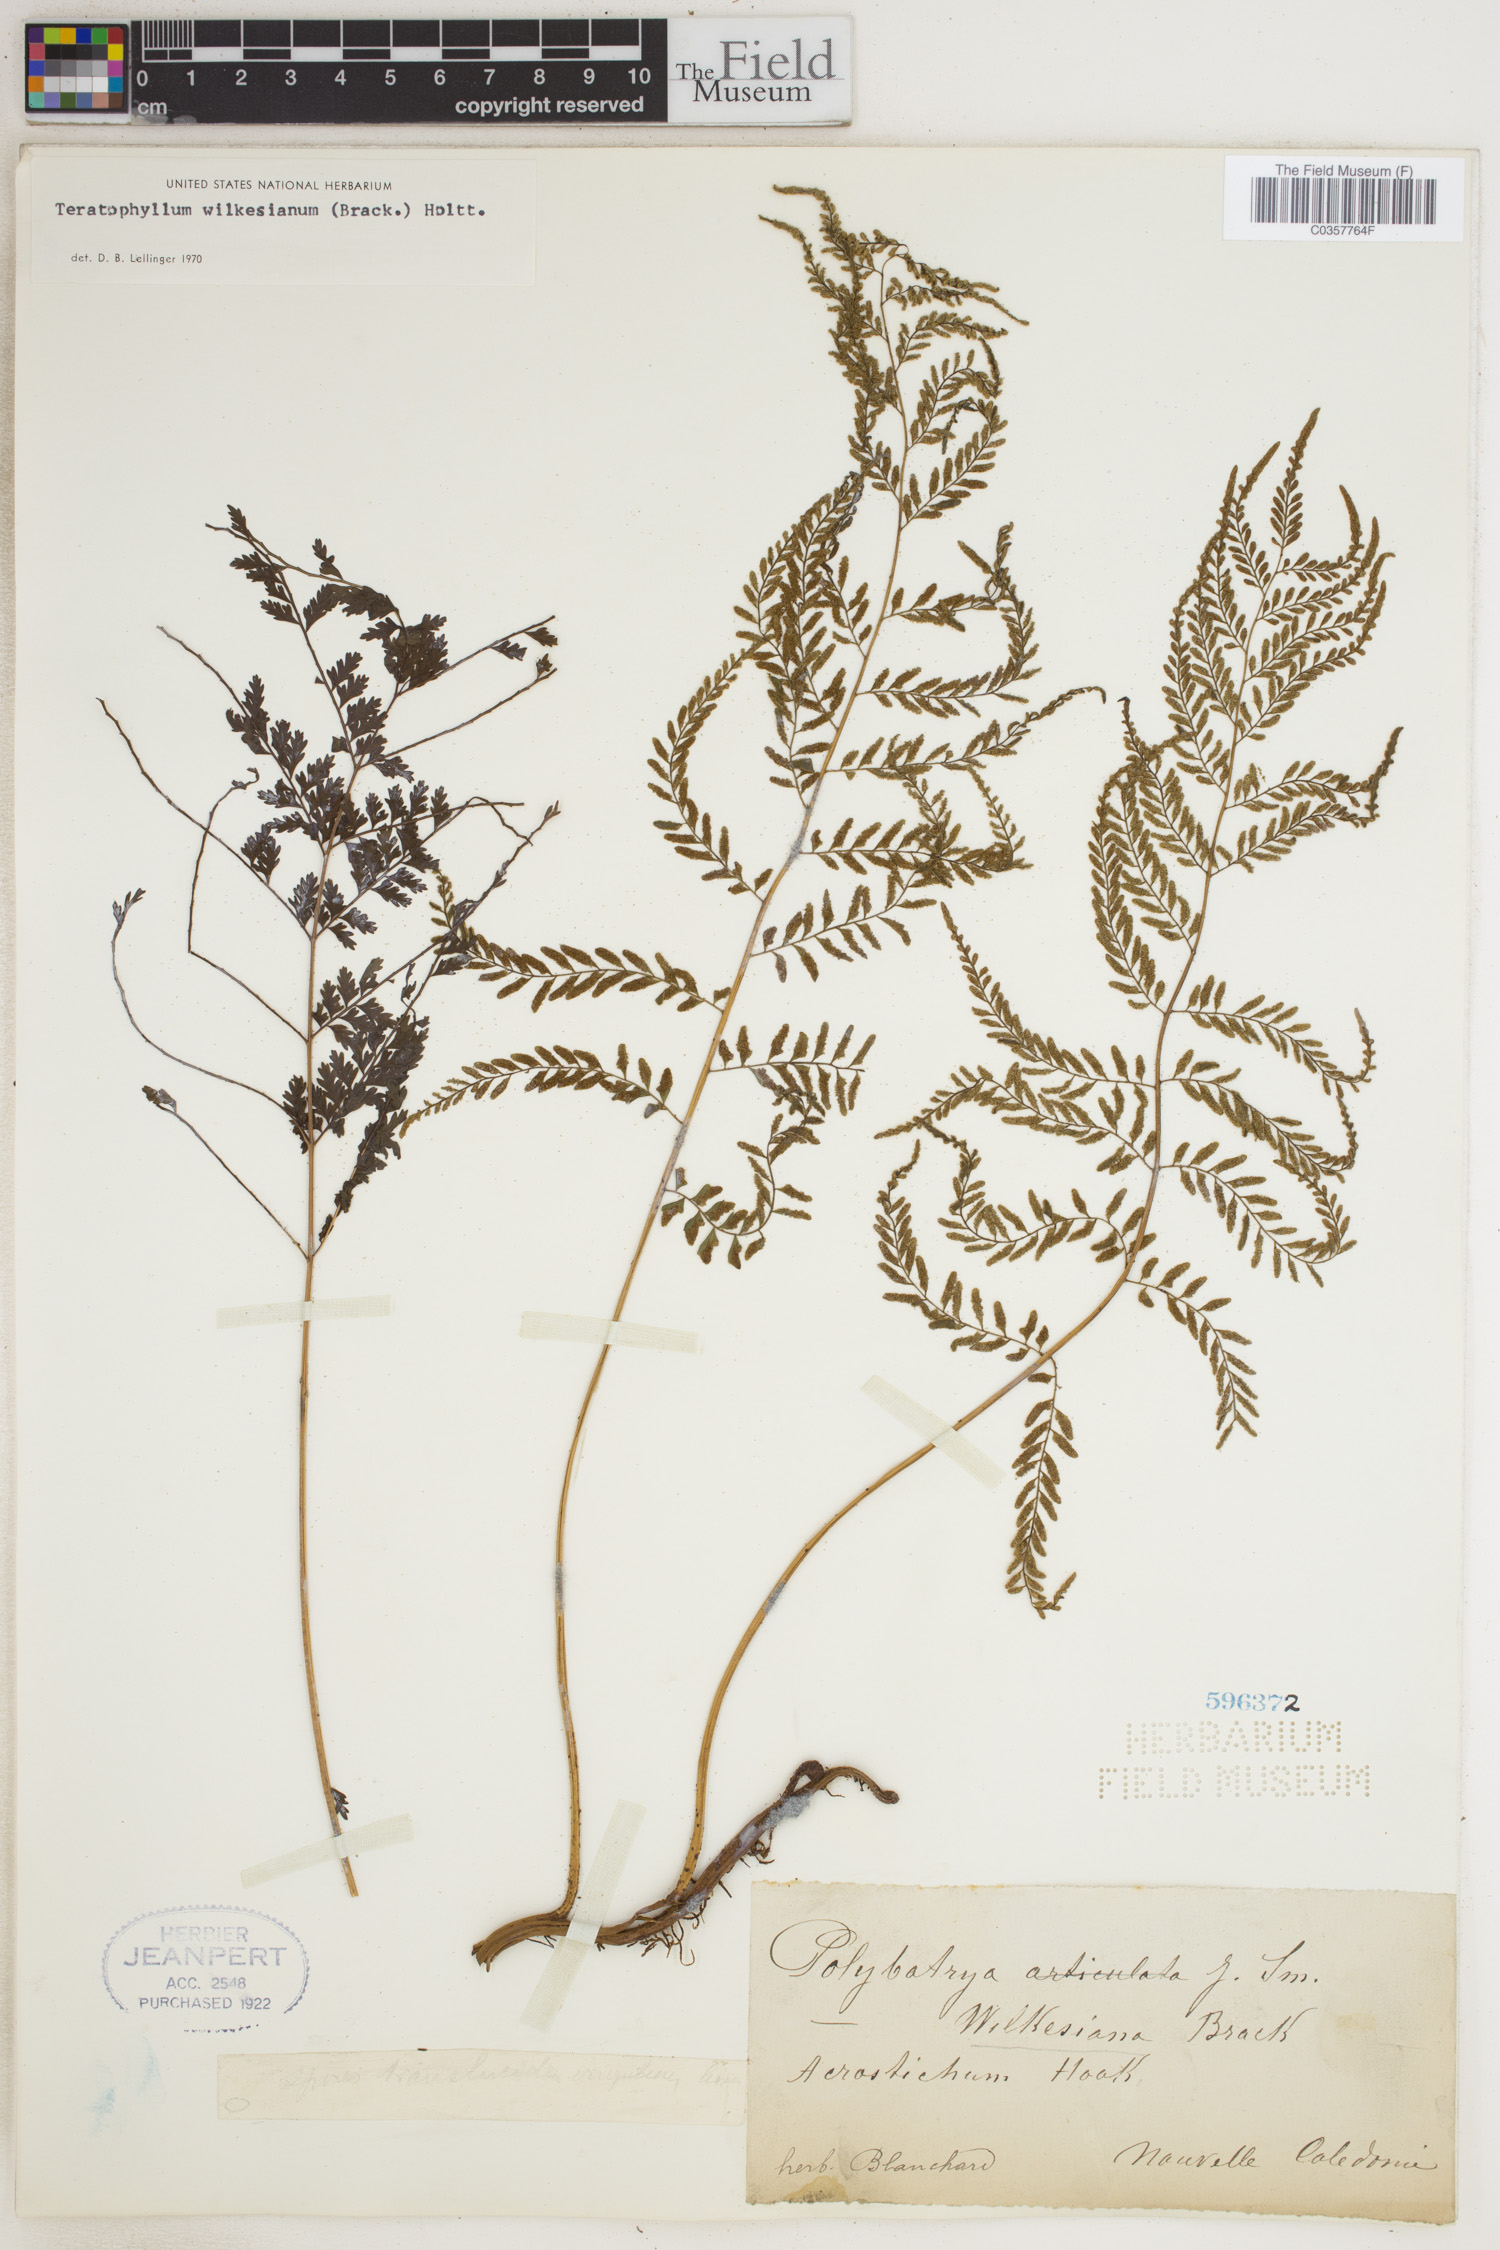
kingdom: Plantae
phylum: Tracheophyta
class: Polypodiopsida
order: Polypodiales
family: Dryopteridaceae
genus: Arthrobotrya
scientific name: Arthrobotrya articulata
